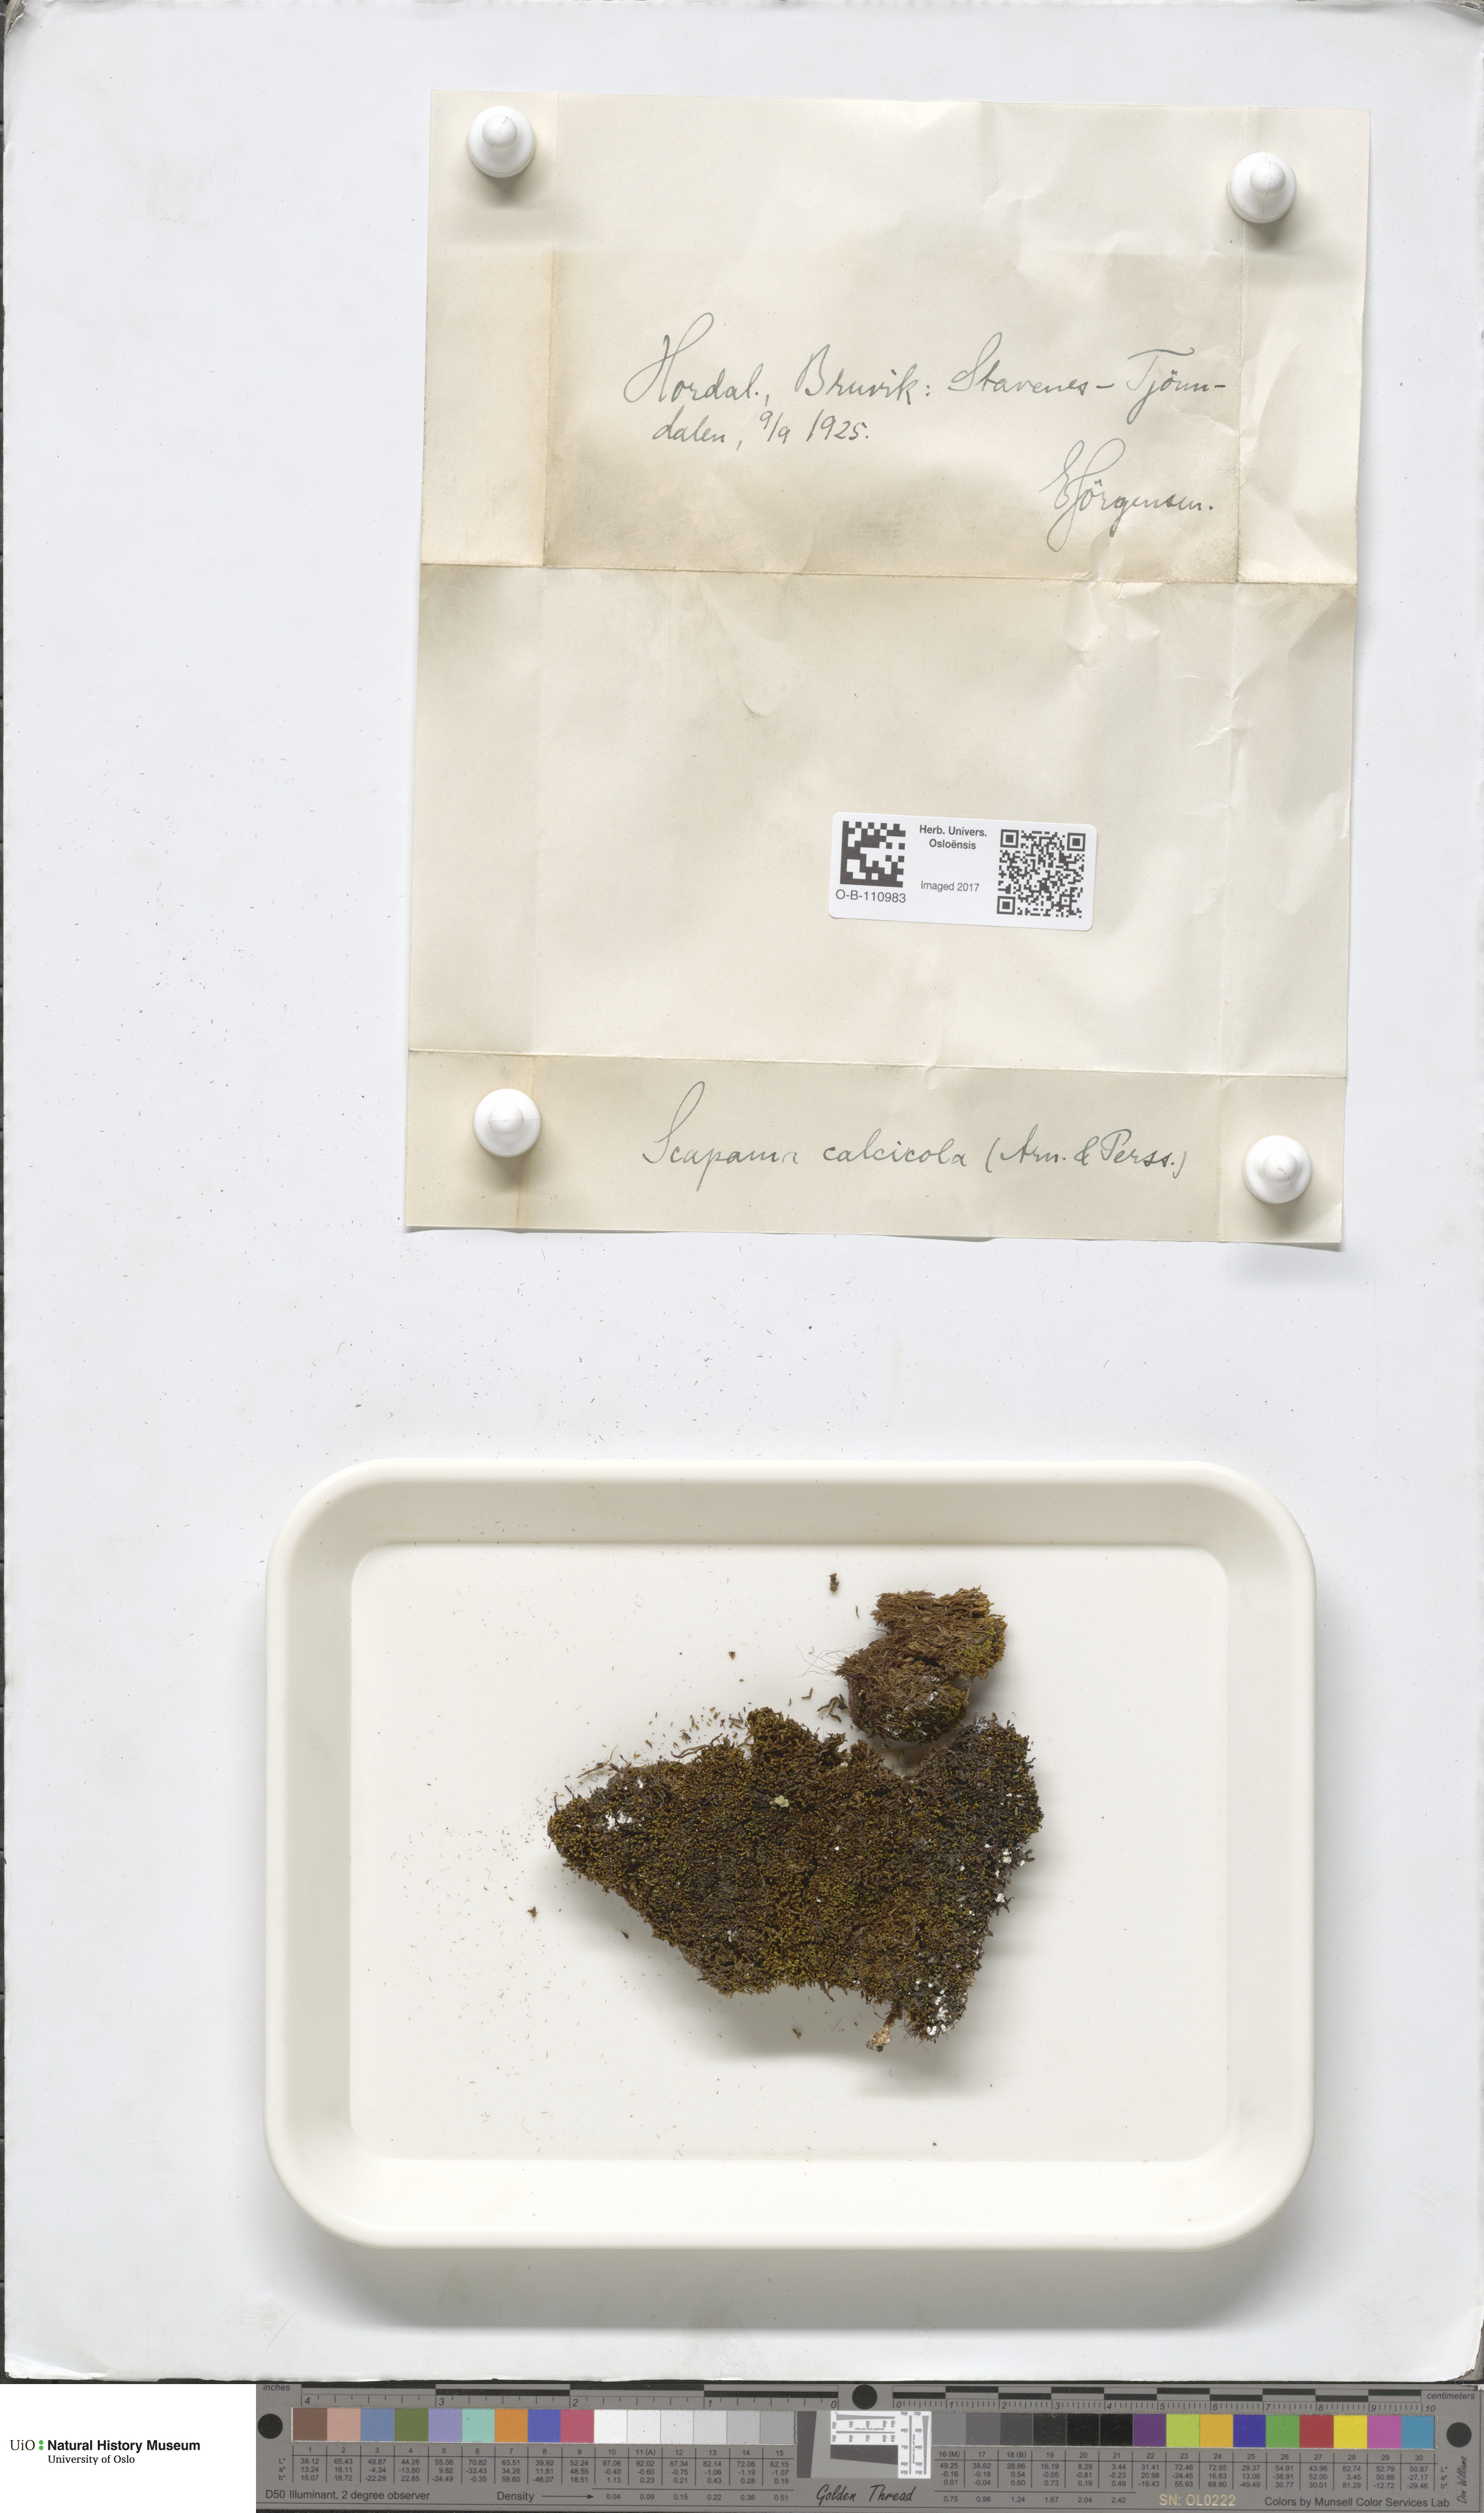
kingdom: Plantae
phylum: Marchantiophyta
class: Jungermanniopsida
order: Jungermanniales
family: Scapaniaceae
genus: Scapania
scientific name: Scapania calcicola
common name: Calcicolous earwort
